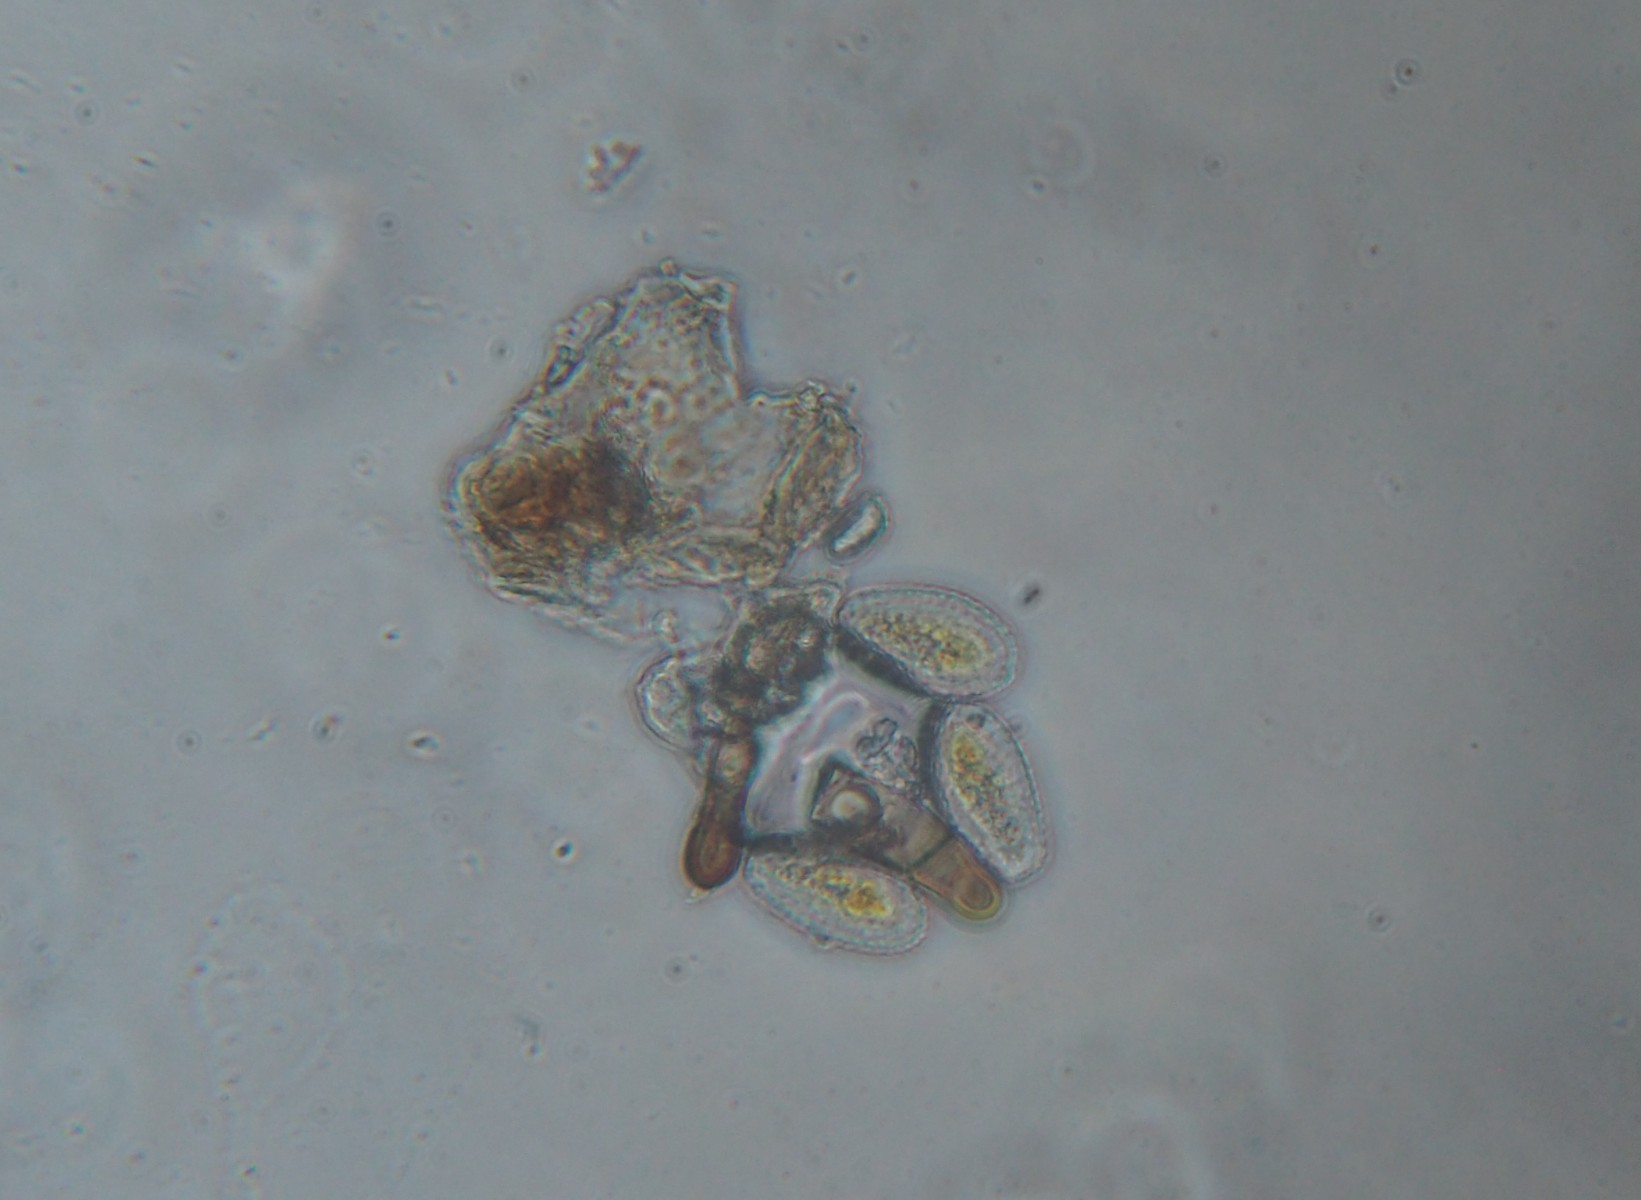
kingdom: Fungi
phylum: Basidiomycota
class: Pucciniomycetes
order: Pucciniales
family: Pucciniaceae
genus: Peristemma
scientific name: Peristemma pseudosphaeria
